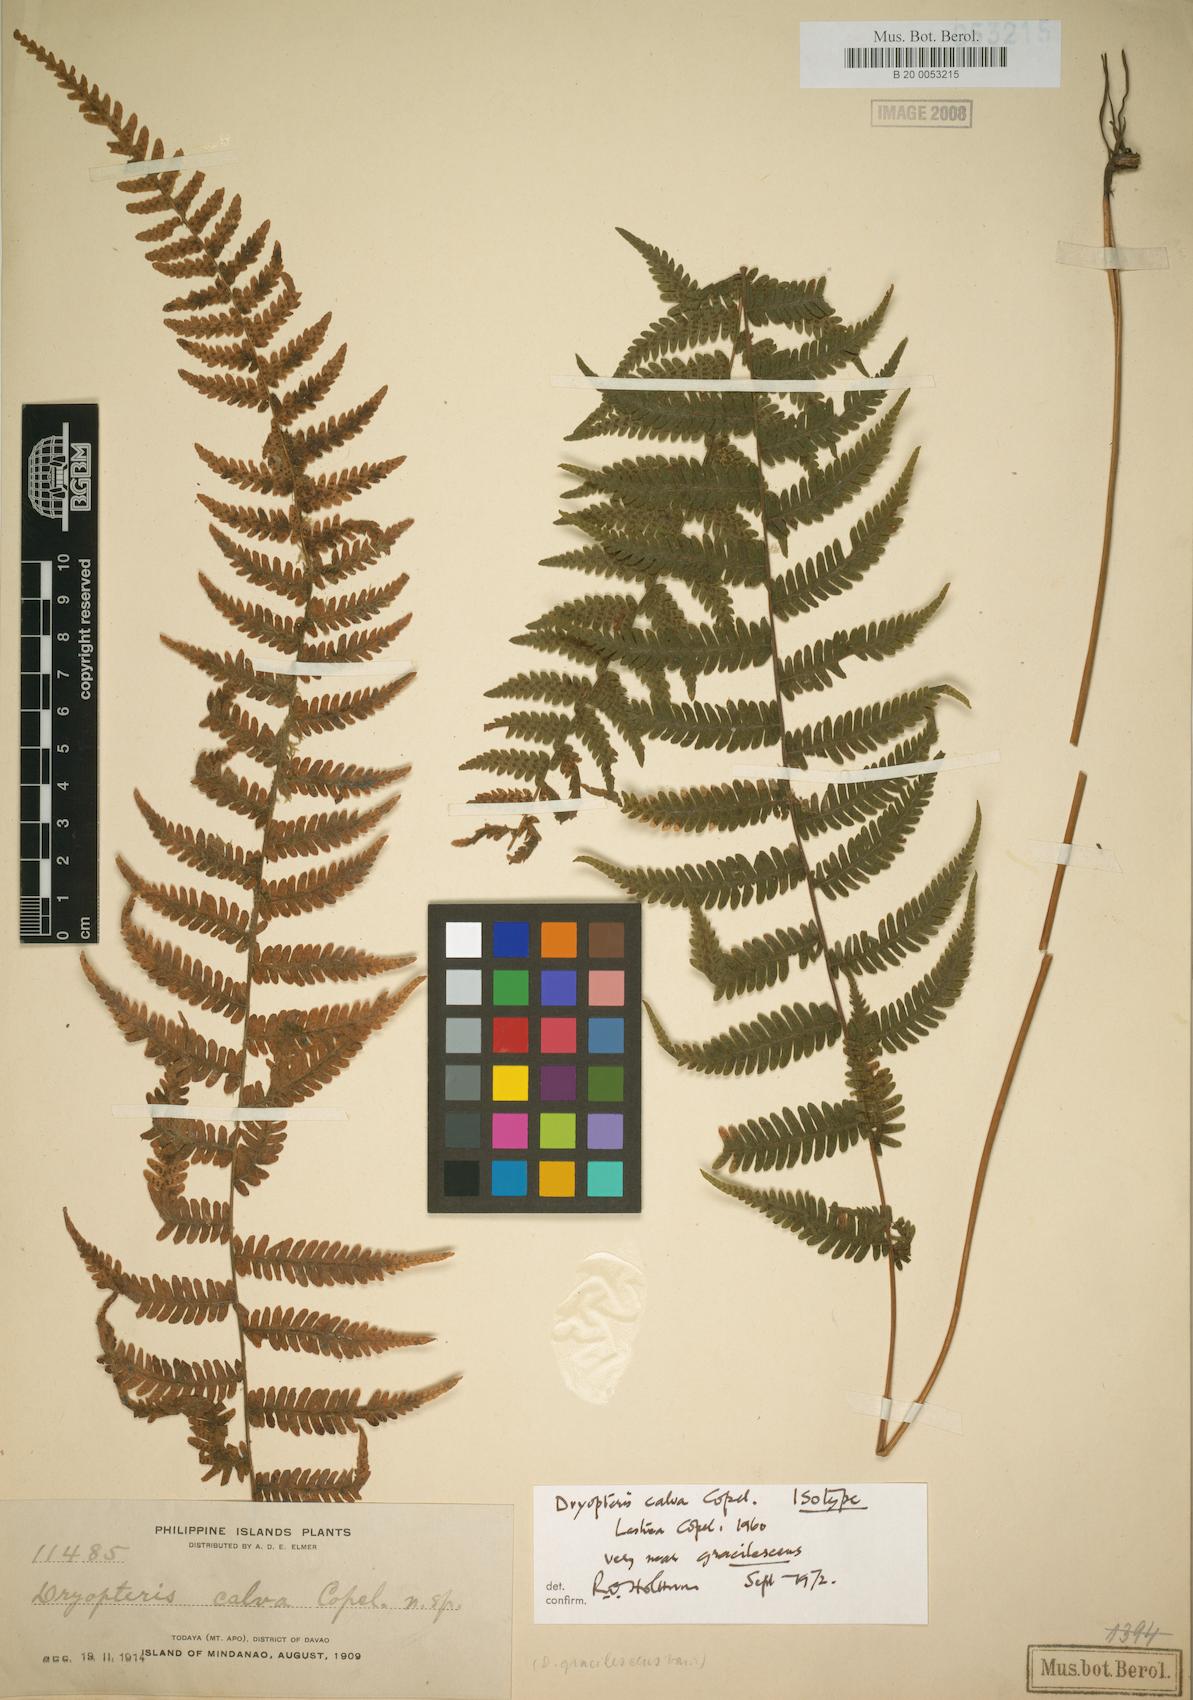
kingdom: Plantae
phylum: Tracheophyta
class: Polypodiopsida
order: Polypodiales
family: Thelypteridaceae
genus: Metathelypteris
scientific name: Metathelypteris gracilescens
